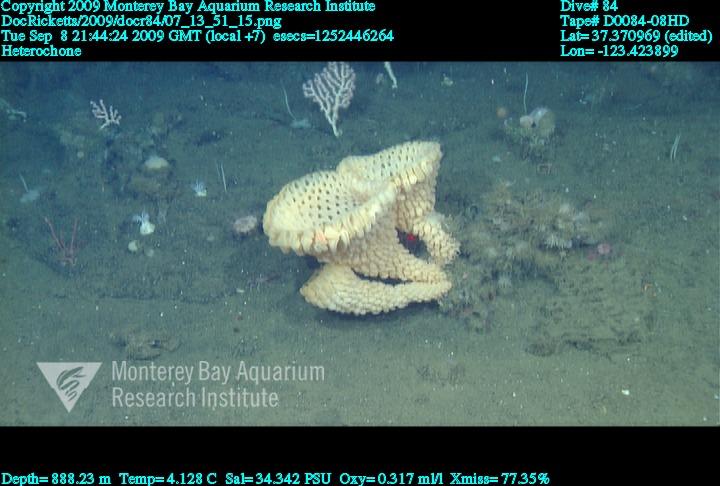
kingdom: Animalia
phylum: Porifera
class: Hexactinellida
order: Sceptrulophora
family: Aphrocallistidae
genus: Heterochone
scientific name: Heterochone
